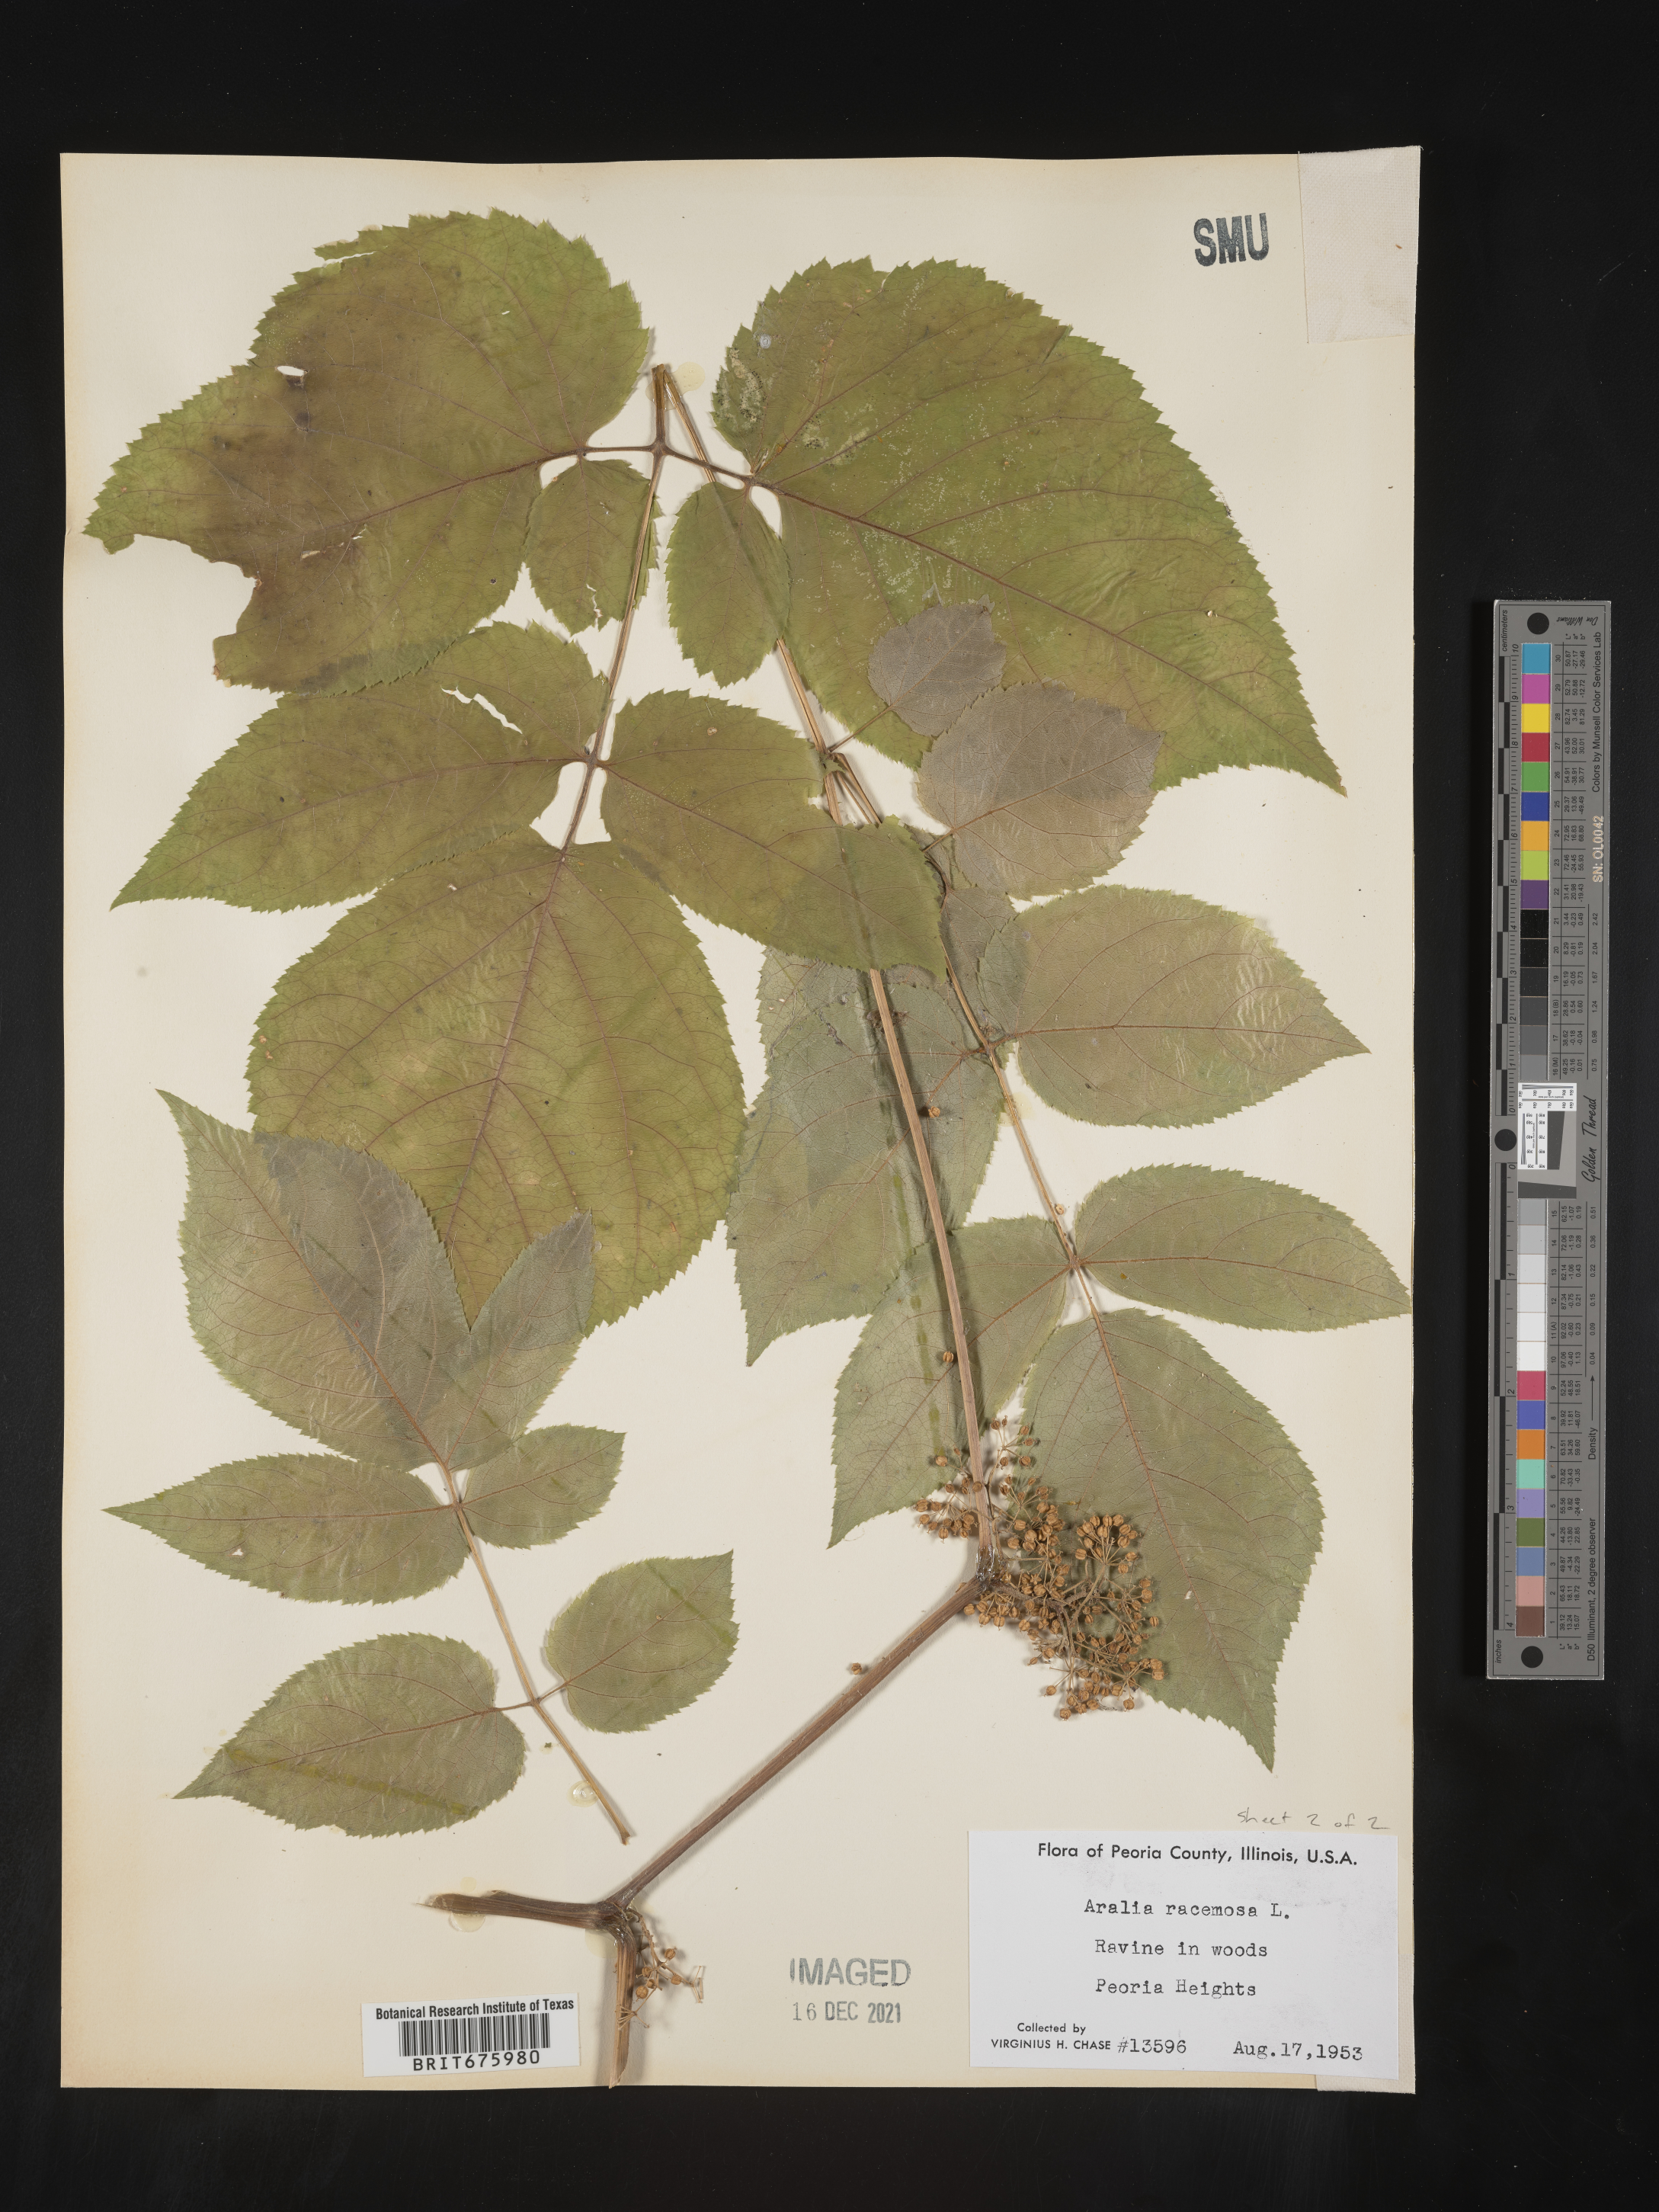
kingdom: Plantae
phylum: Tracheophyta
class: Magnoliopsida
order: Apiales
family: Araliaceae
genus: Aralia
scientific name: Aralia racemosa
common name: American-spikenard
